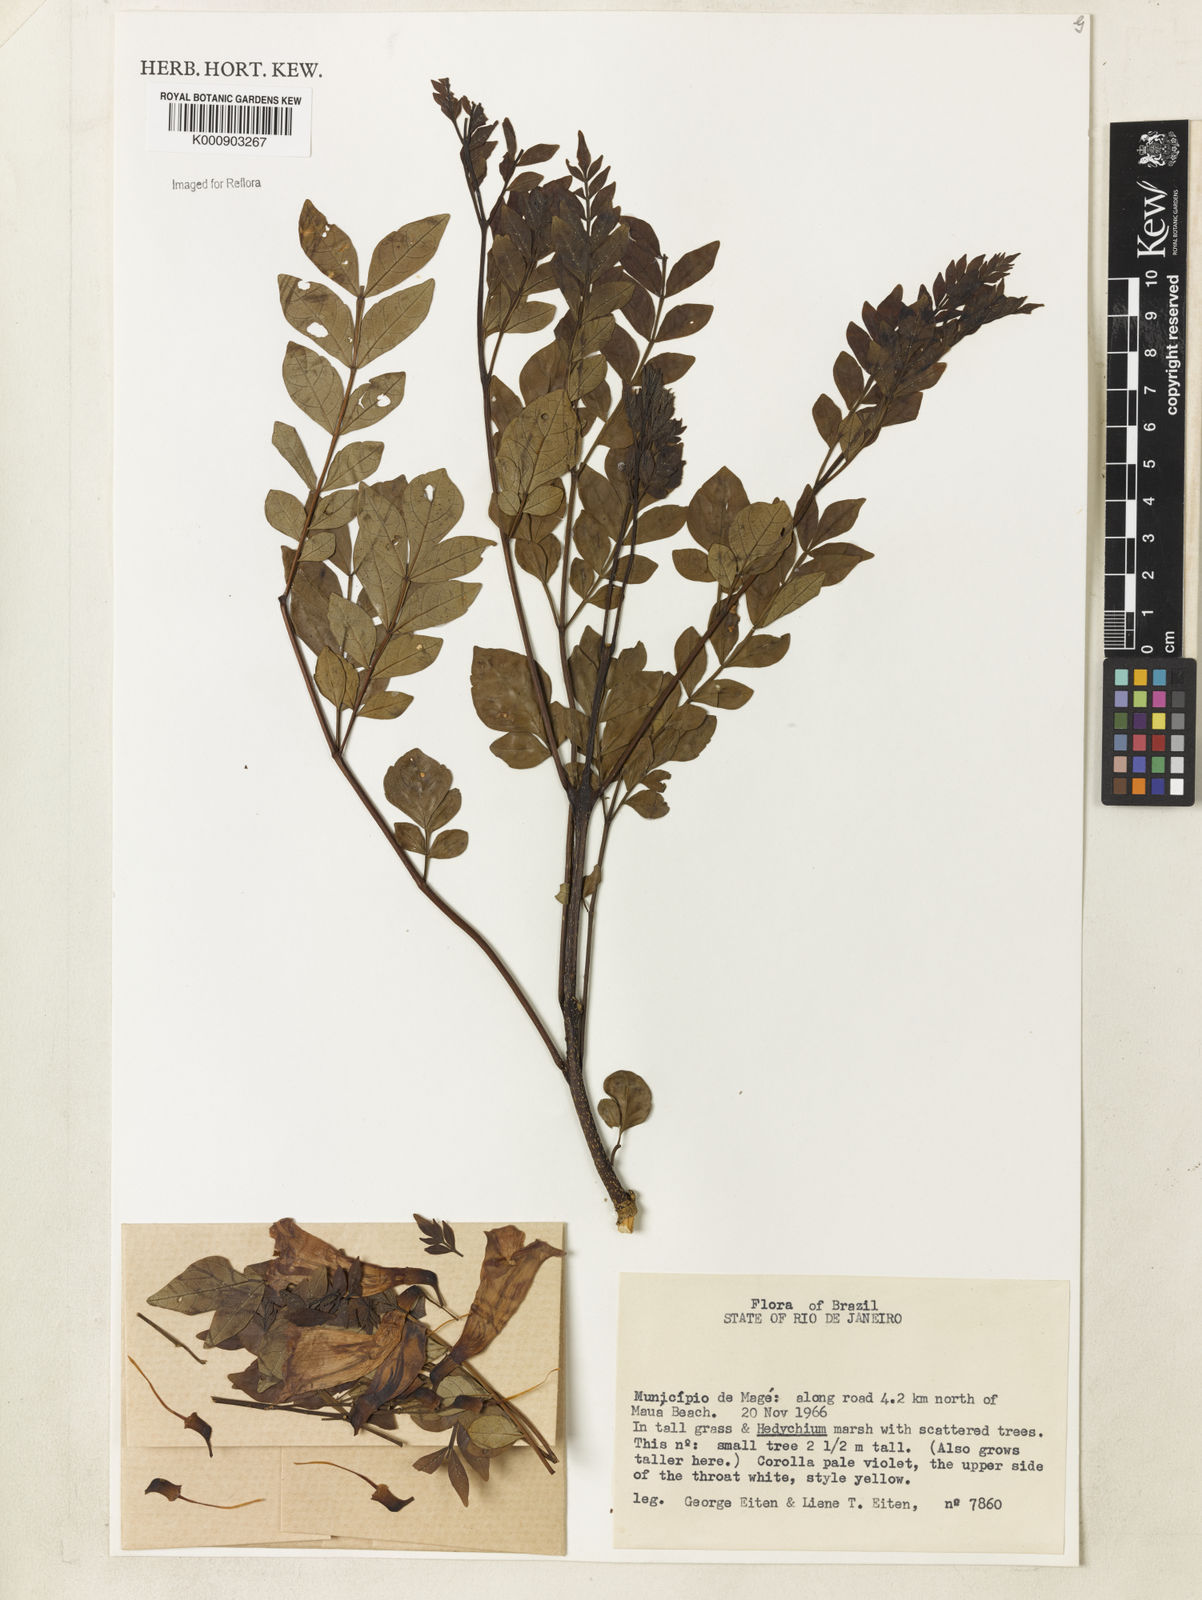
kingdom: Plantae
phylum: Tracheophyta
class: Magnoliopsida
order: Lamiales
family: Bignoniaceae
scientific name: Bignoniaceae
